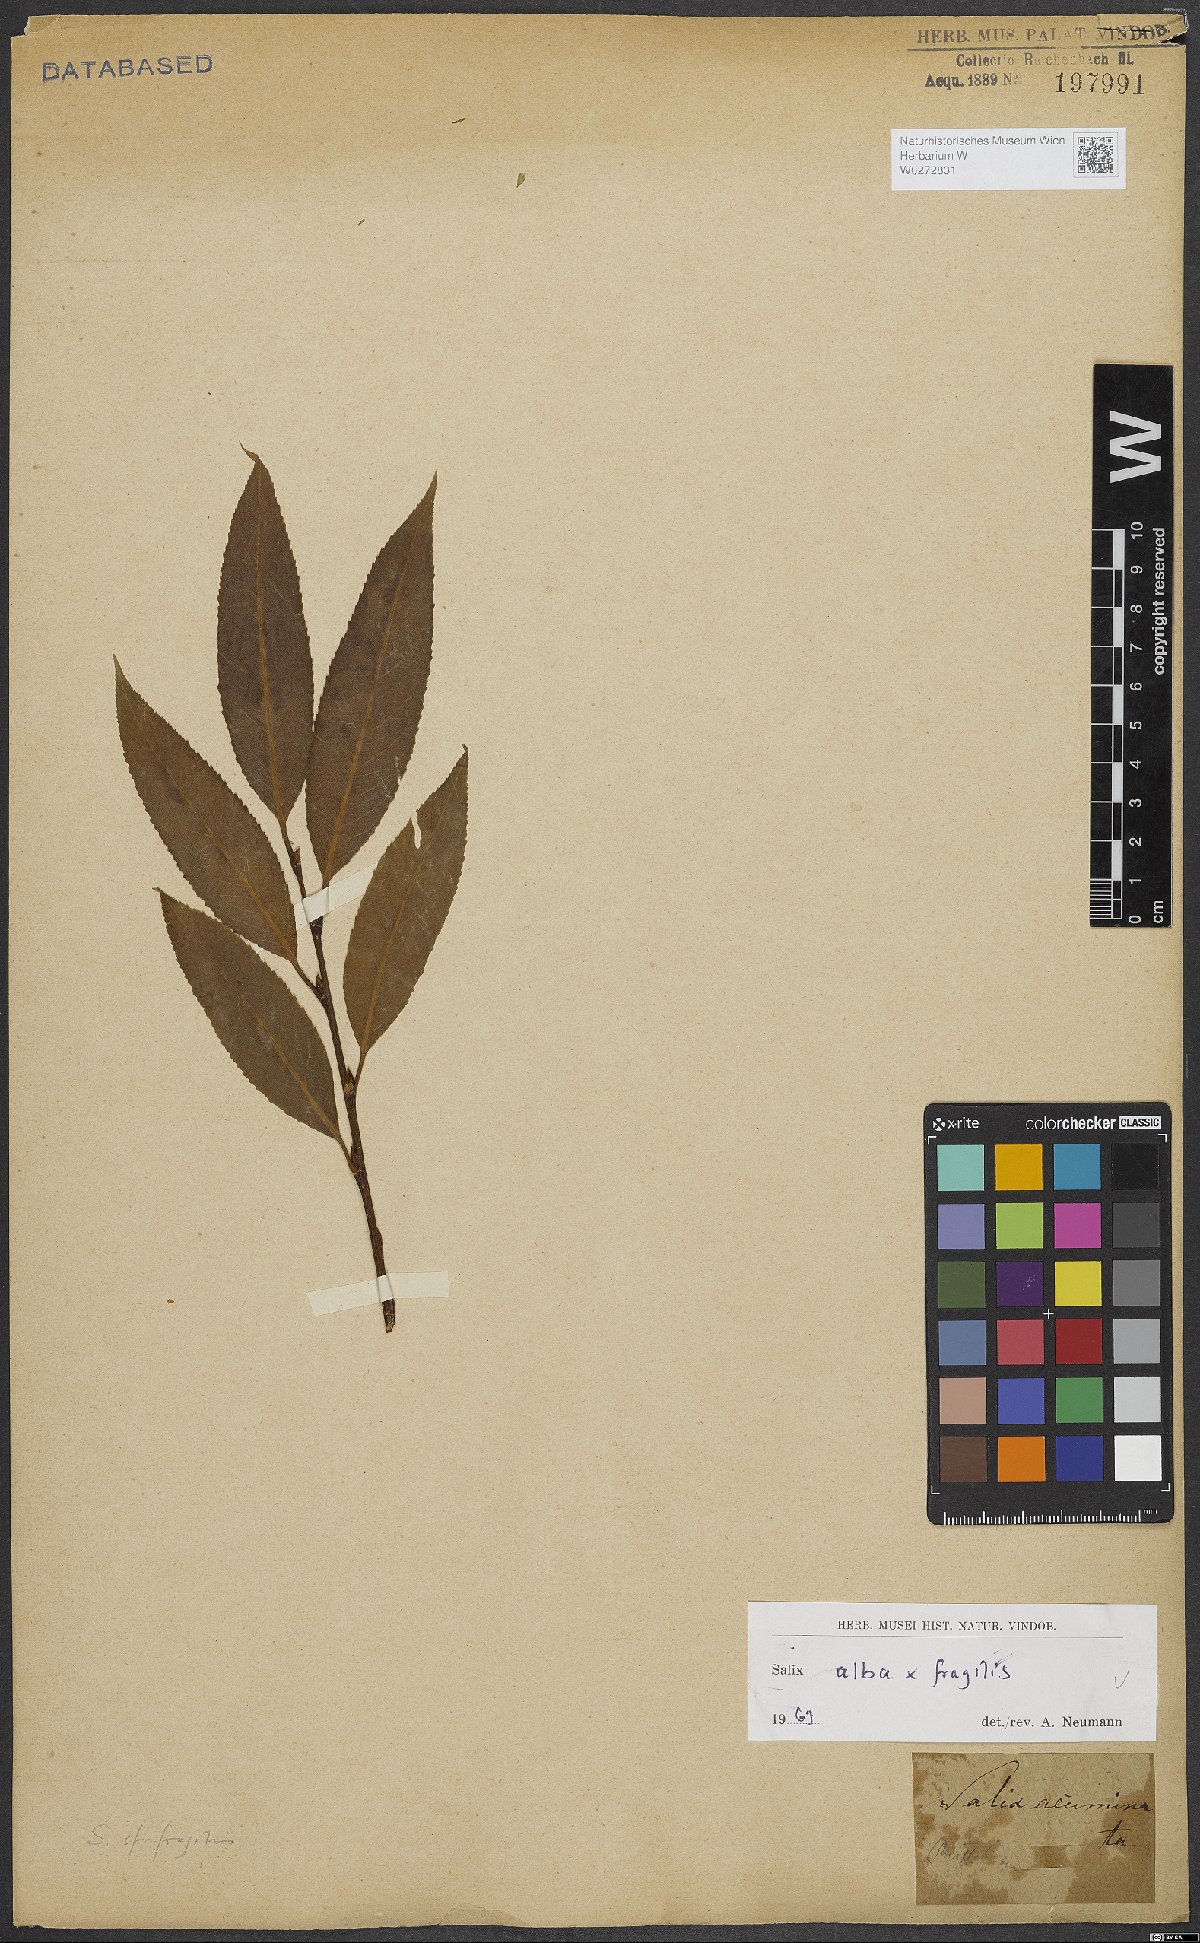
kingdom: Plantae
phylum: Tracheophyta
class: Magnoliopsida
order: Malpighiales
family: Salicaceae
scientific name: Salicaceae
